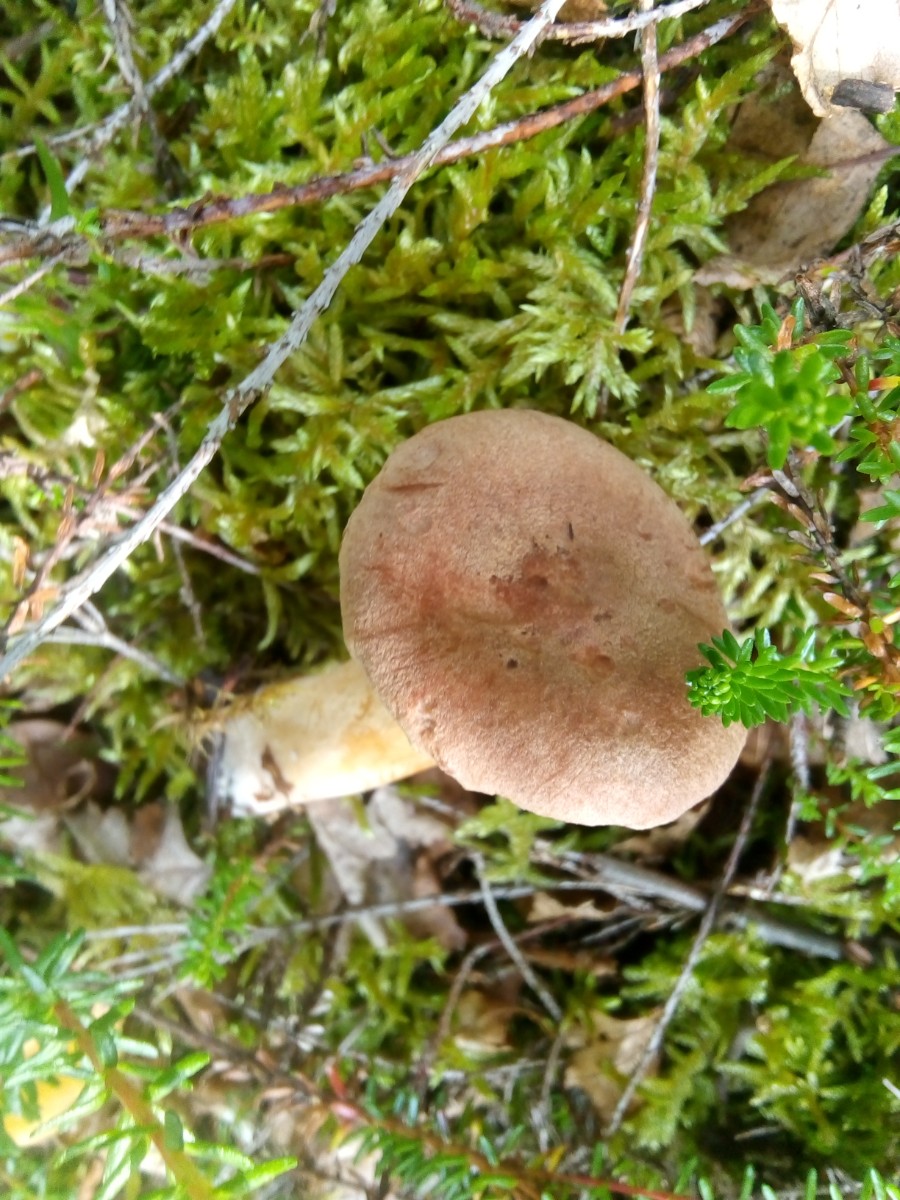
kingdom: Fungi
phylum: Basidiomycota
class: Agaricomycetes
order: Russulales
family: Russulaceae
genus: Lactarius
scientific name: Lactarius helvus
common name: mose-mælkehat
